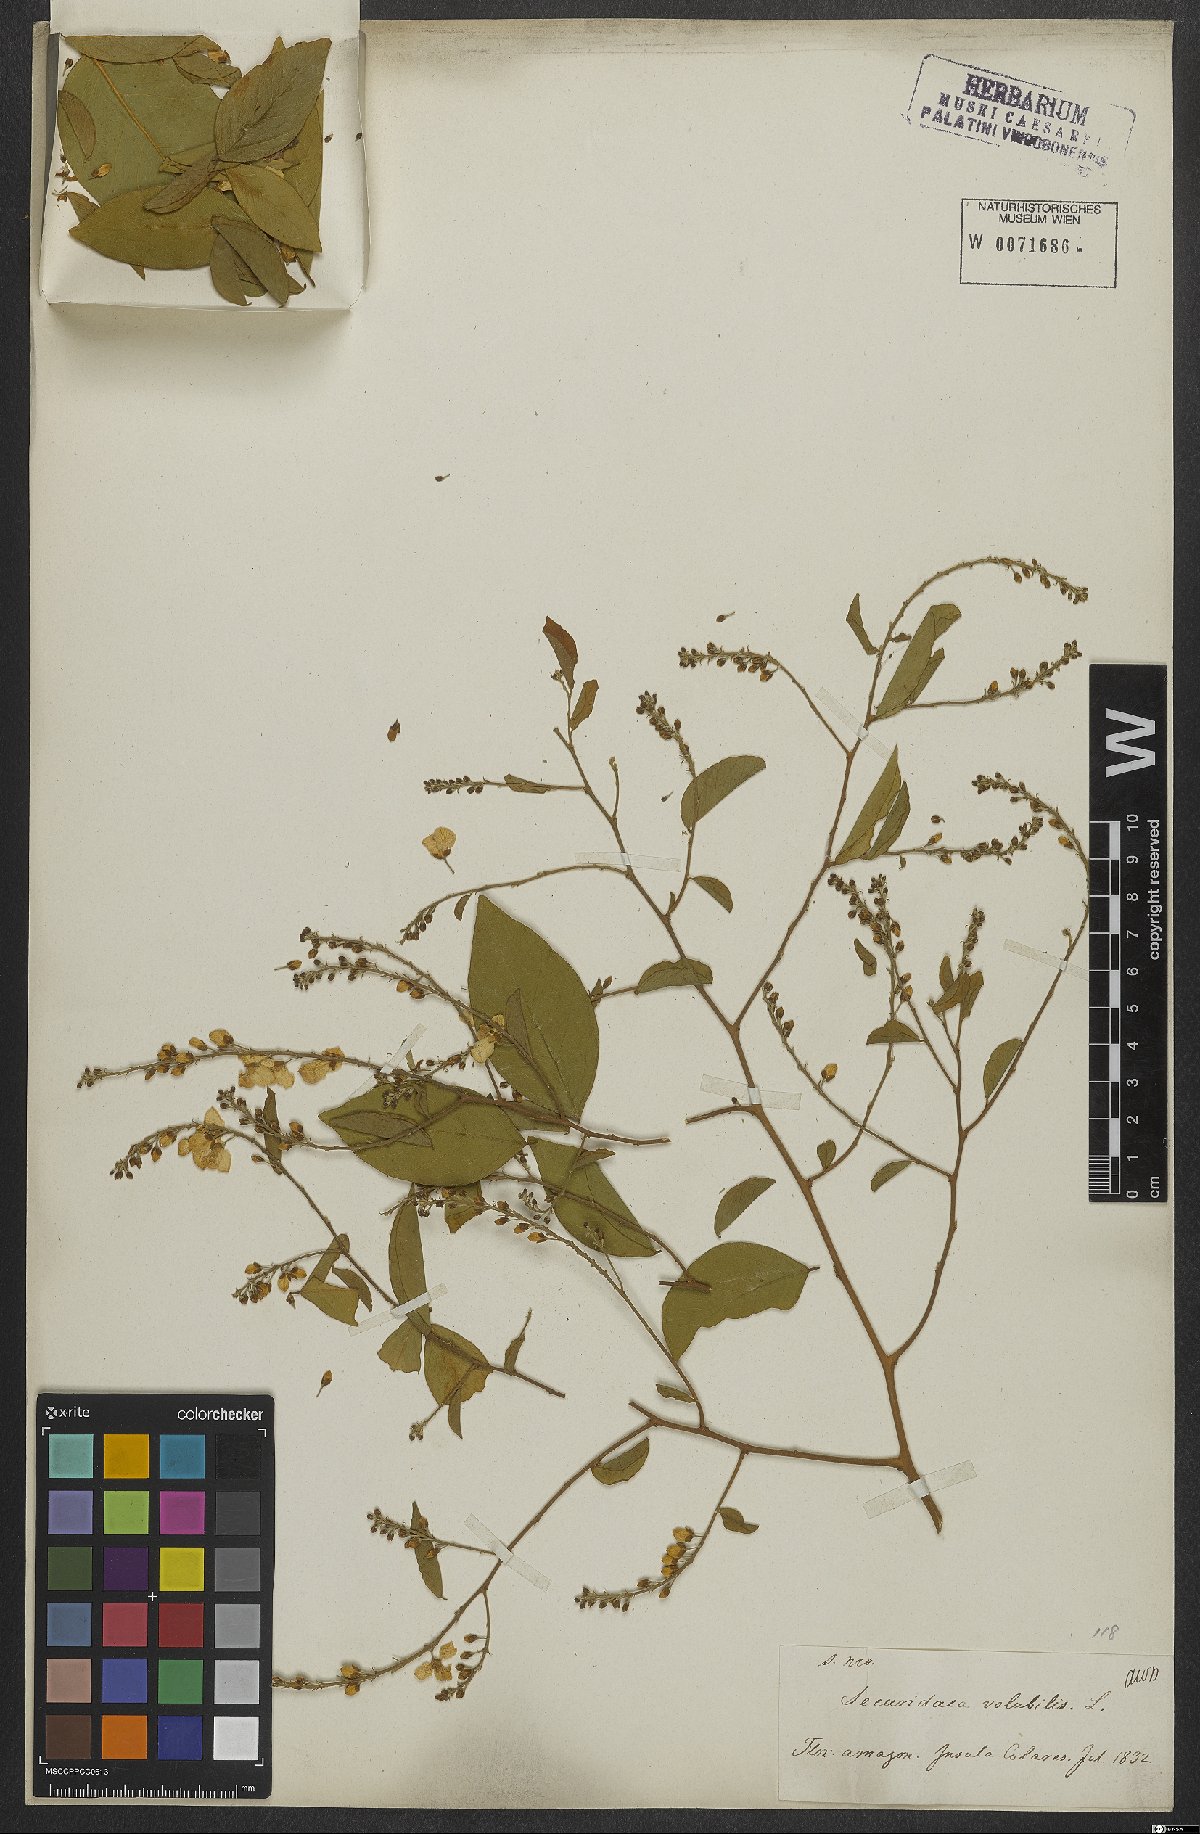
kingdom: Plantae
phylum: Tracheophyta
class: Magnoliopsida
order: Fabales
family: Polygalaceae
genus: Securidaca
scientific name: Securidaca
